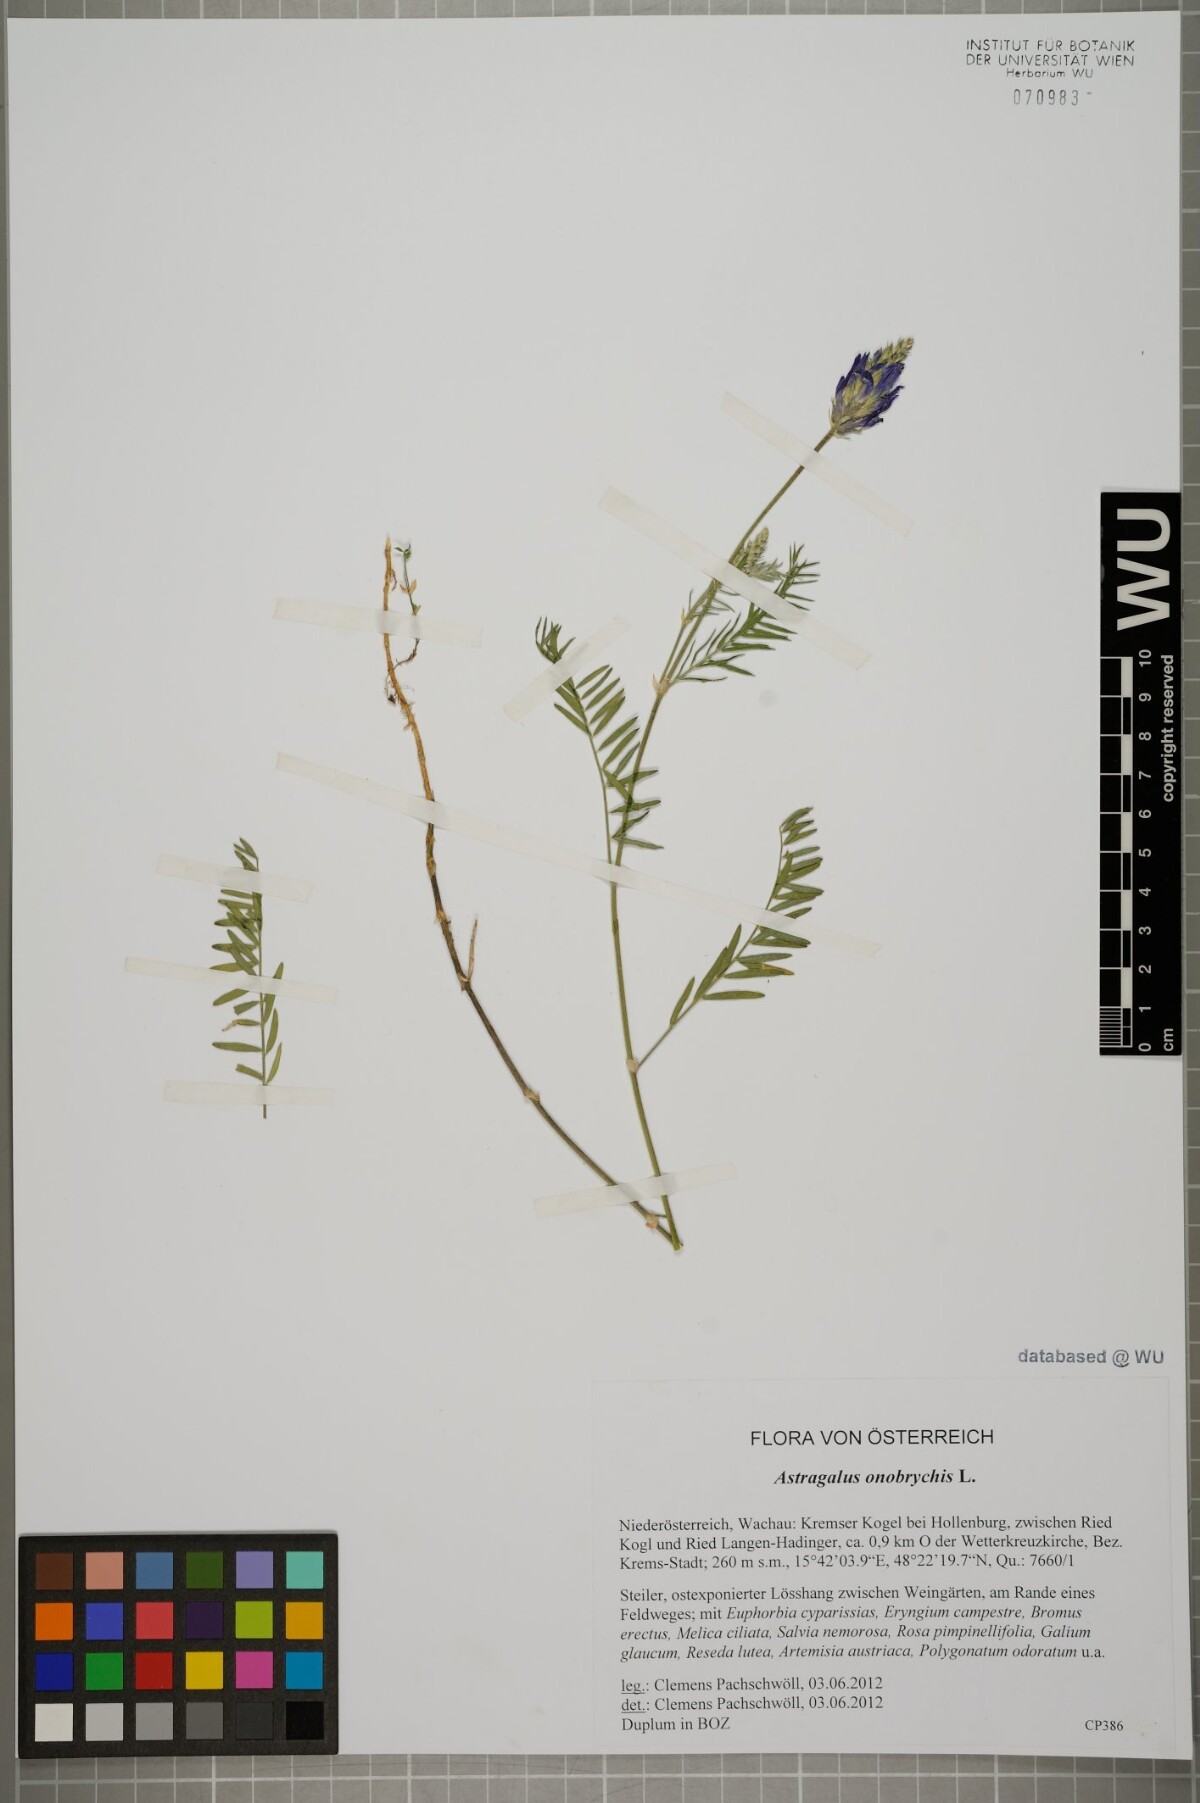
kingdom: Plantae
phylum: Tracheophyta
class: Magnoliopsida
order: Fabales
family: Fabaceae
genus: Astragalus
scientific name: Astragalus onobrychis
